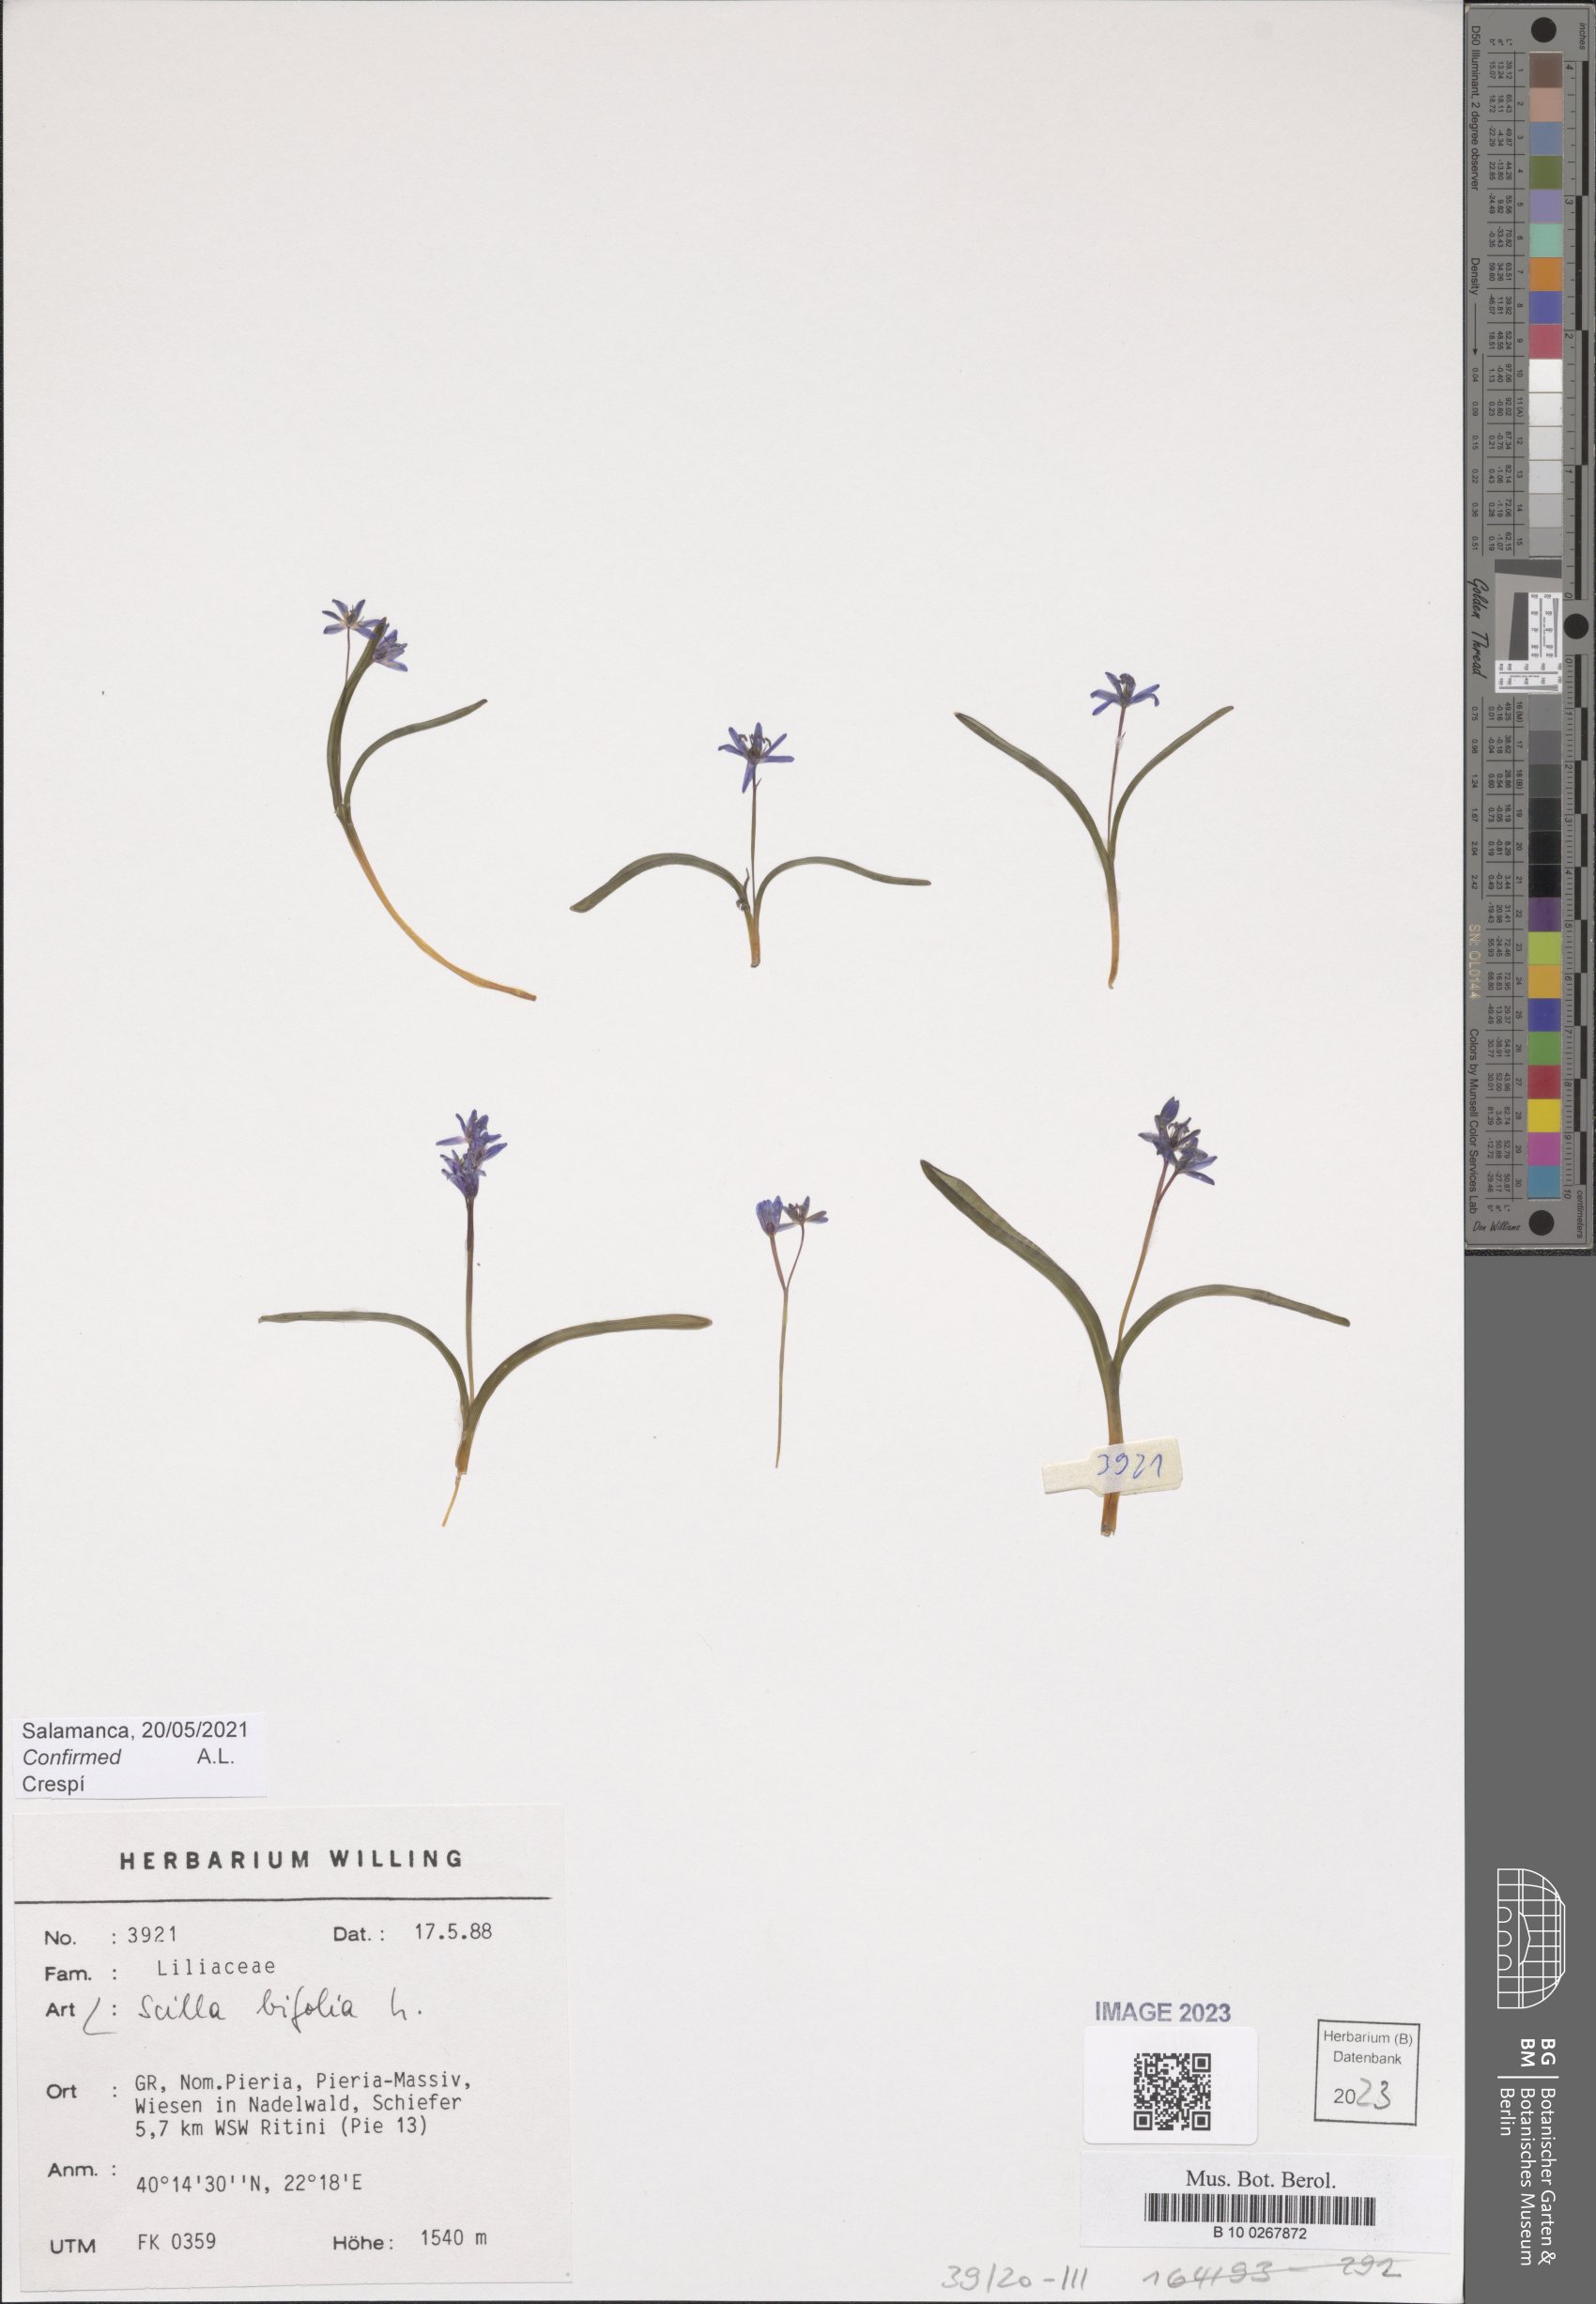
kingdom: Plantae
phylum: Tracheophyta
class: Liliopsida
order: Asparagales
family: Asparagaceae
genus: Scilla
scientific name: Scilla bifolia
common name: Alpine squill
